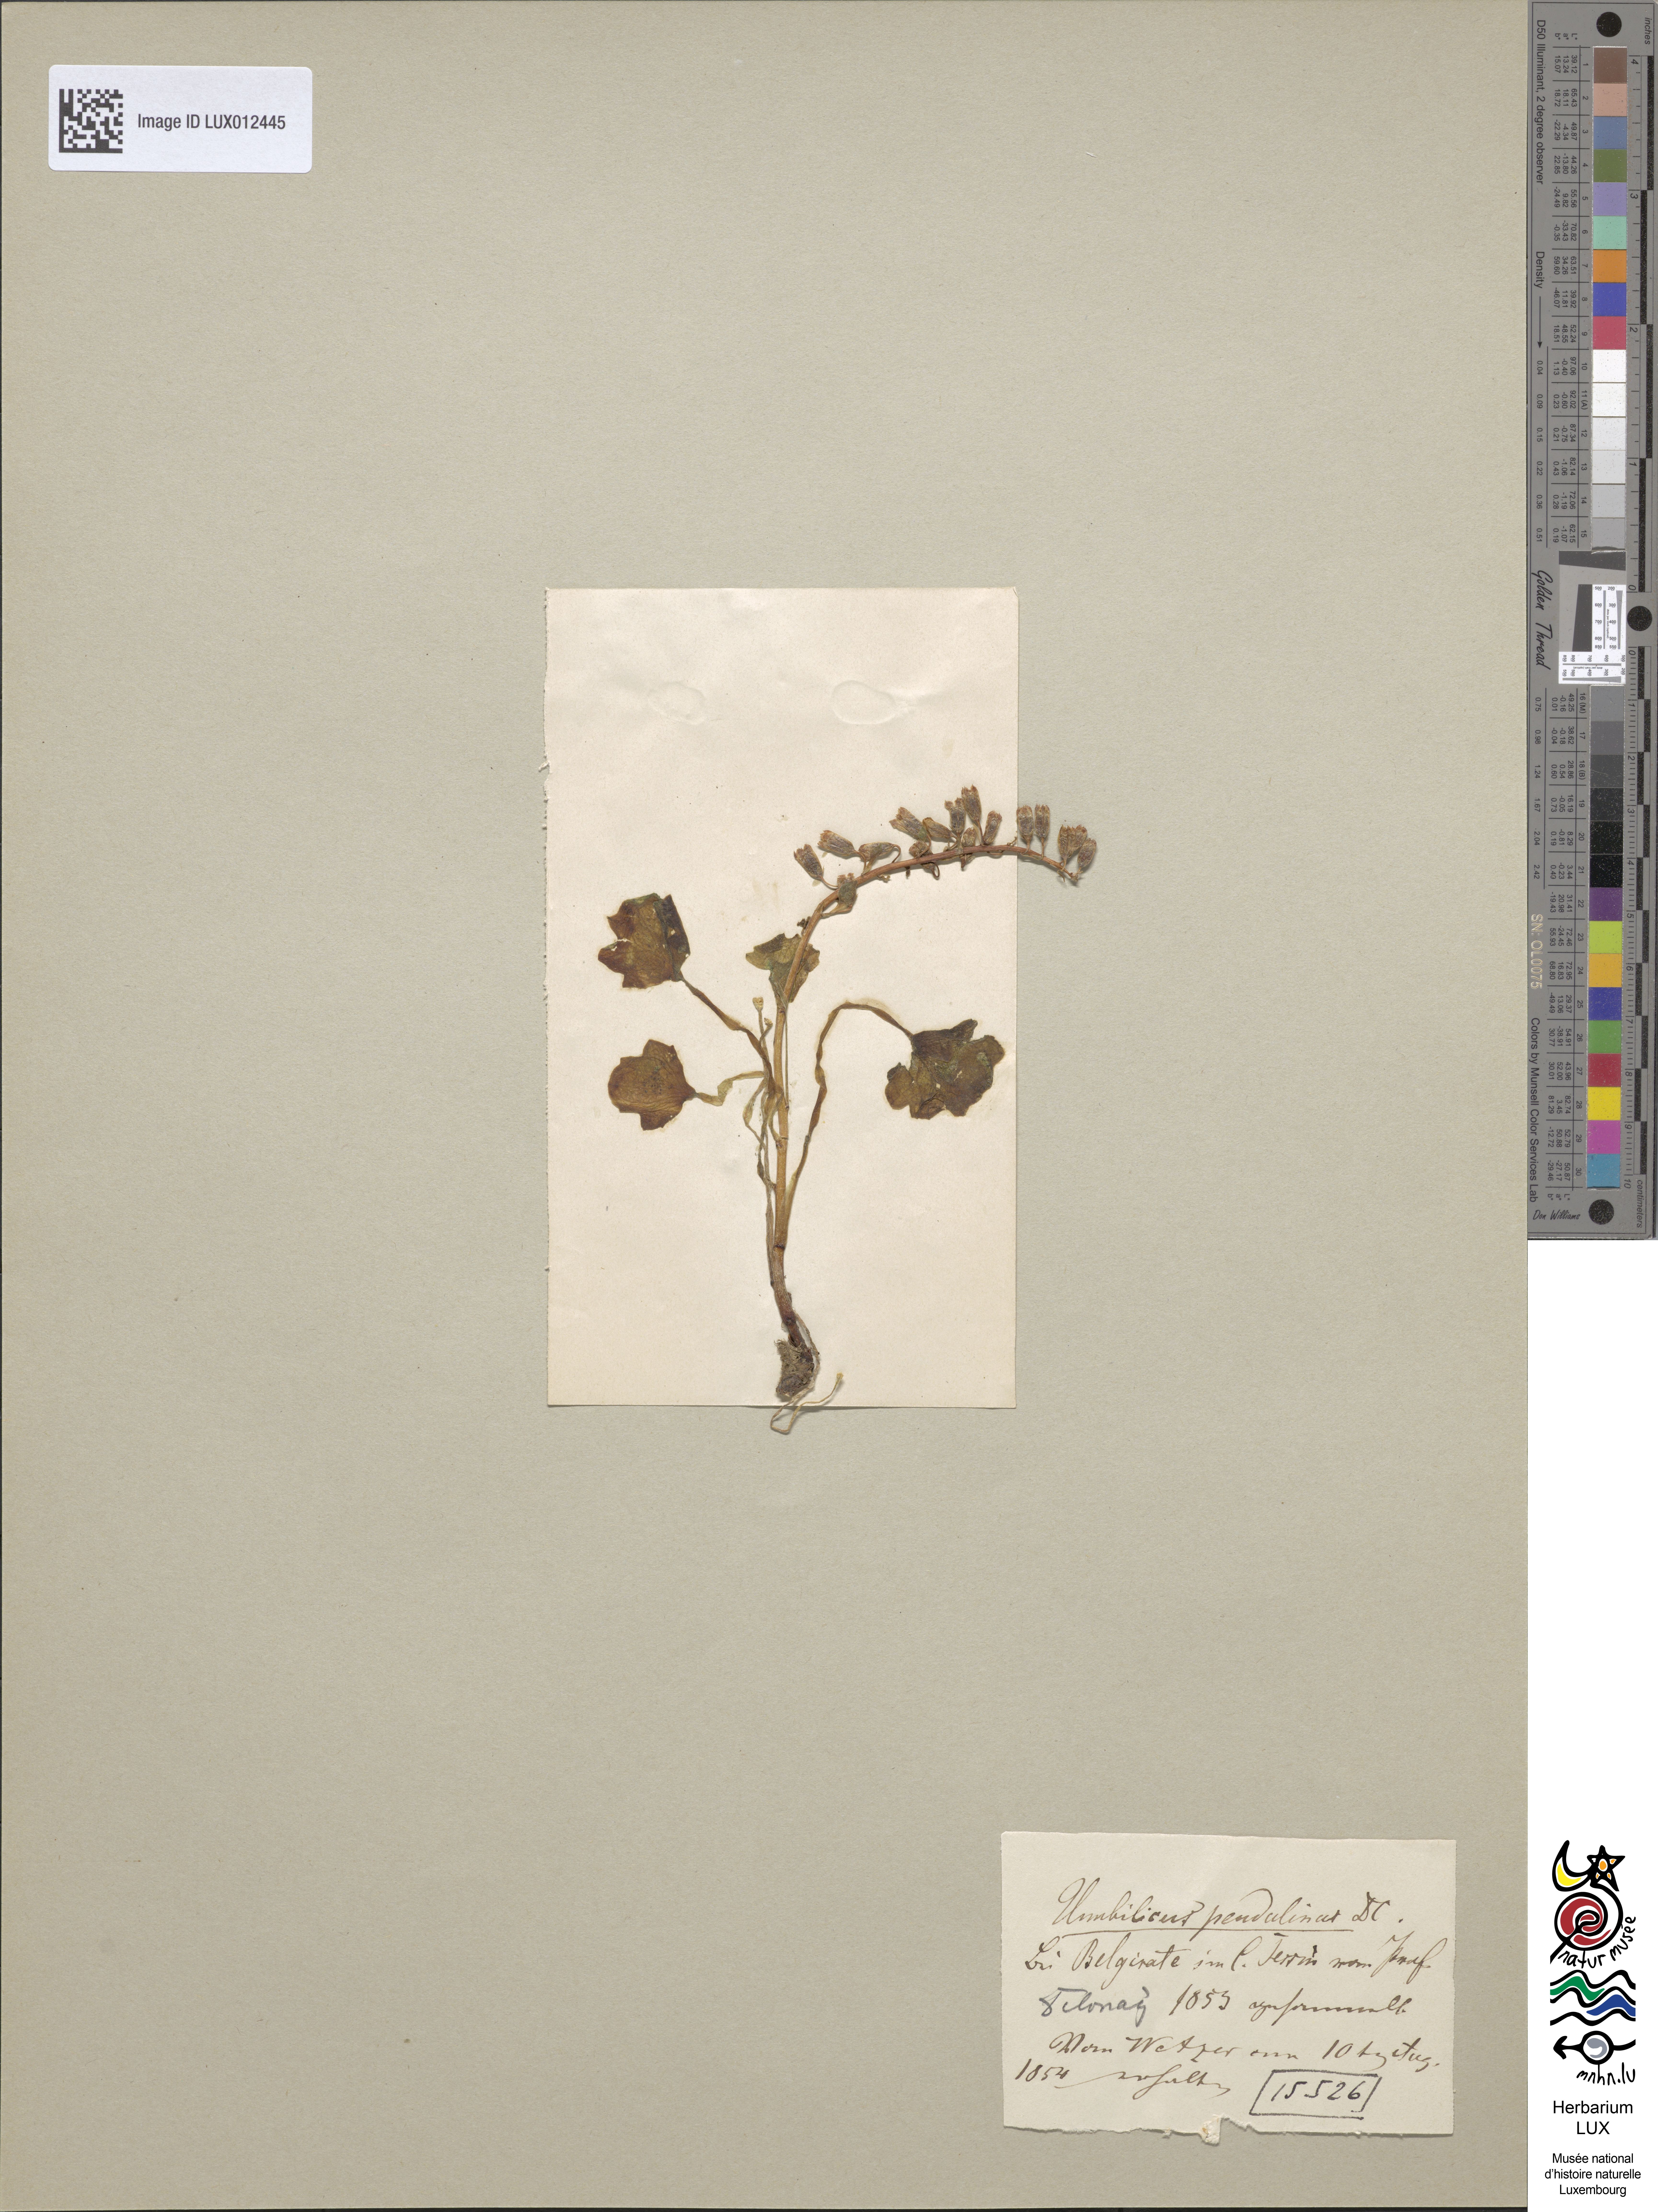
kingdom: Plantae
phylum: Tracheophyta
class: Magnoliopsida
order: Saxifragales
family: Crassulaceae
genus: Umbilicus
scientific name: Umbilicus rupestris
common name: Navelwort
